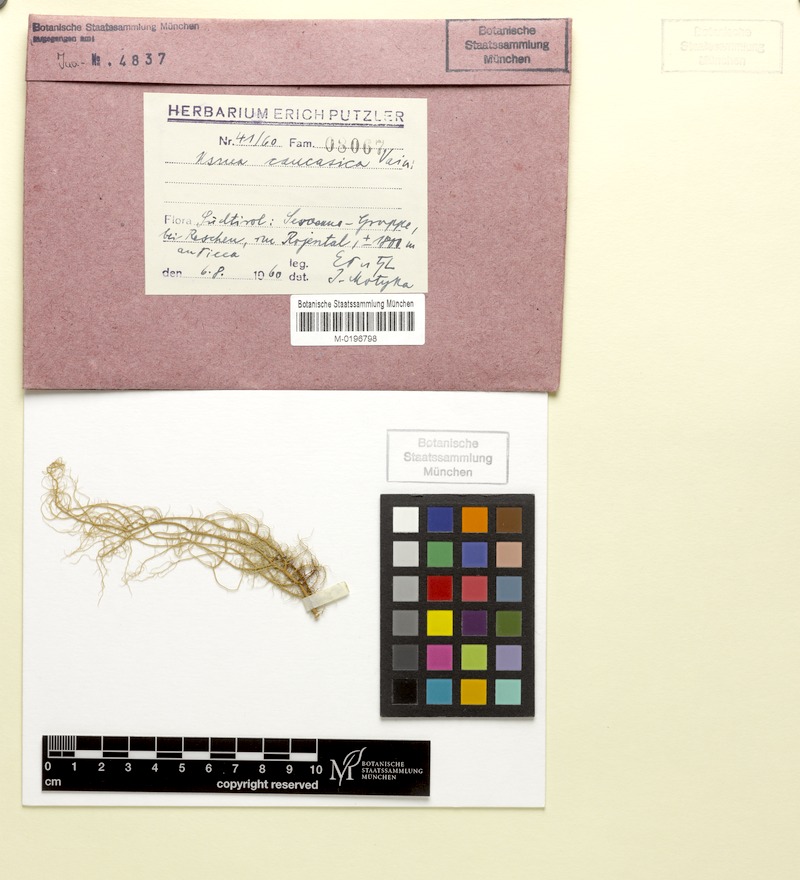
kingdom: Fungi
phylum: Ascomycota
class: Lecanoromycetes
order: Lecanorales
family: Parmeliaceae
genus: Usnea
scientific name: Usnea dasopoga
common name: Fishbone beard lichen
